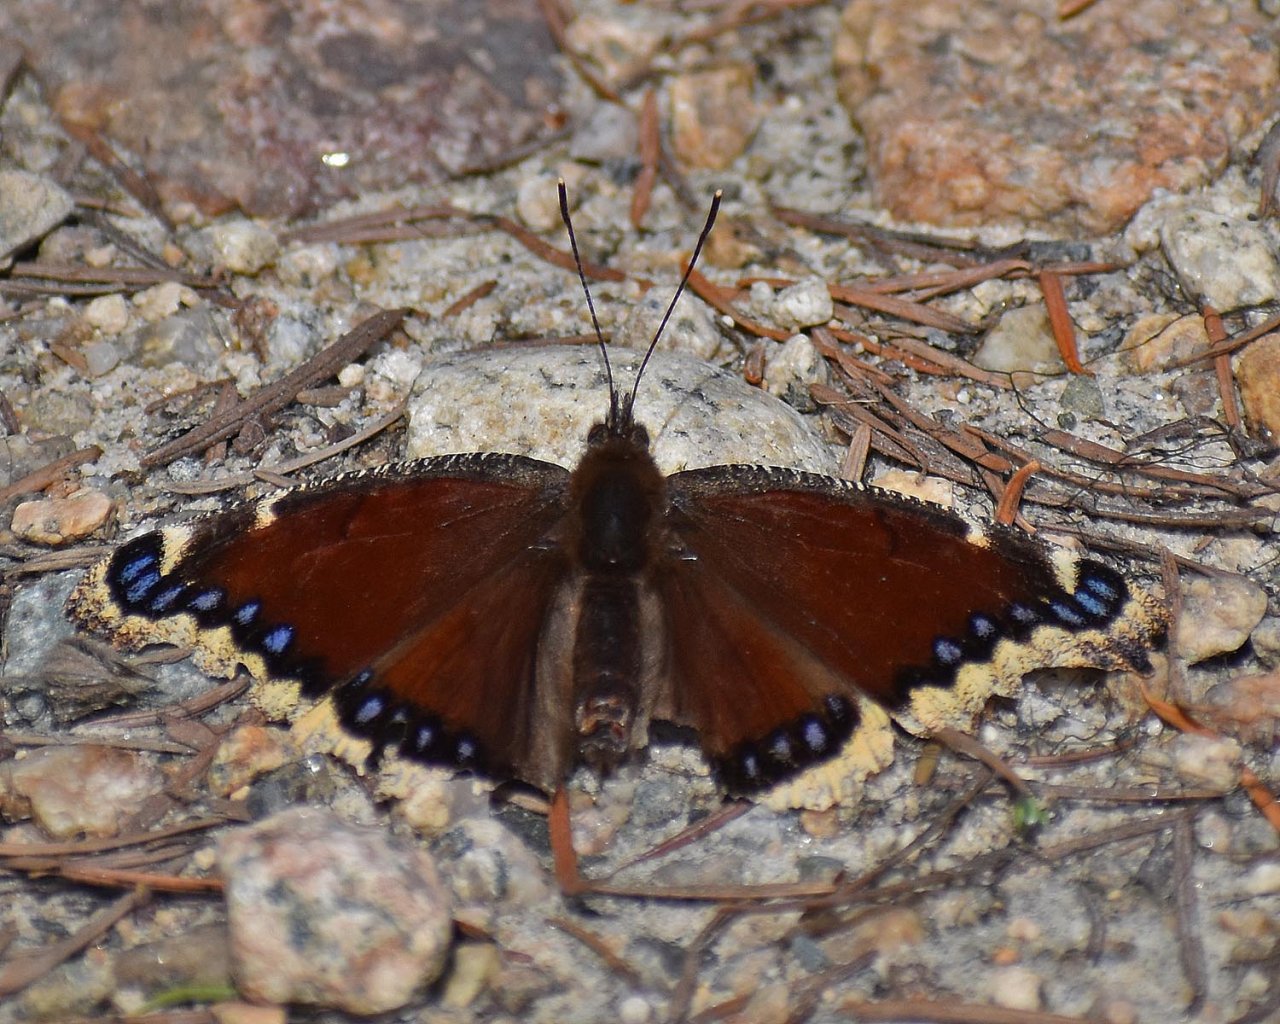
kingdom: Animalia
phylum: Arthropoda
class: Insecta
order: Lepidoptera
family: Nymphalidae
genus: Nymphalis
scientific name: Nymphalis antiopa
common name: Mourning Cloak
